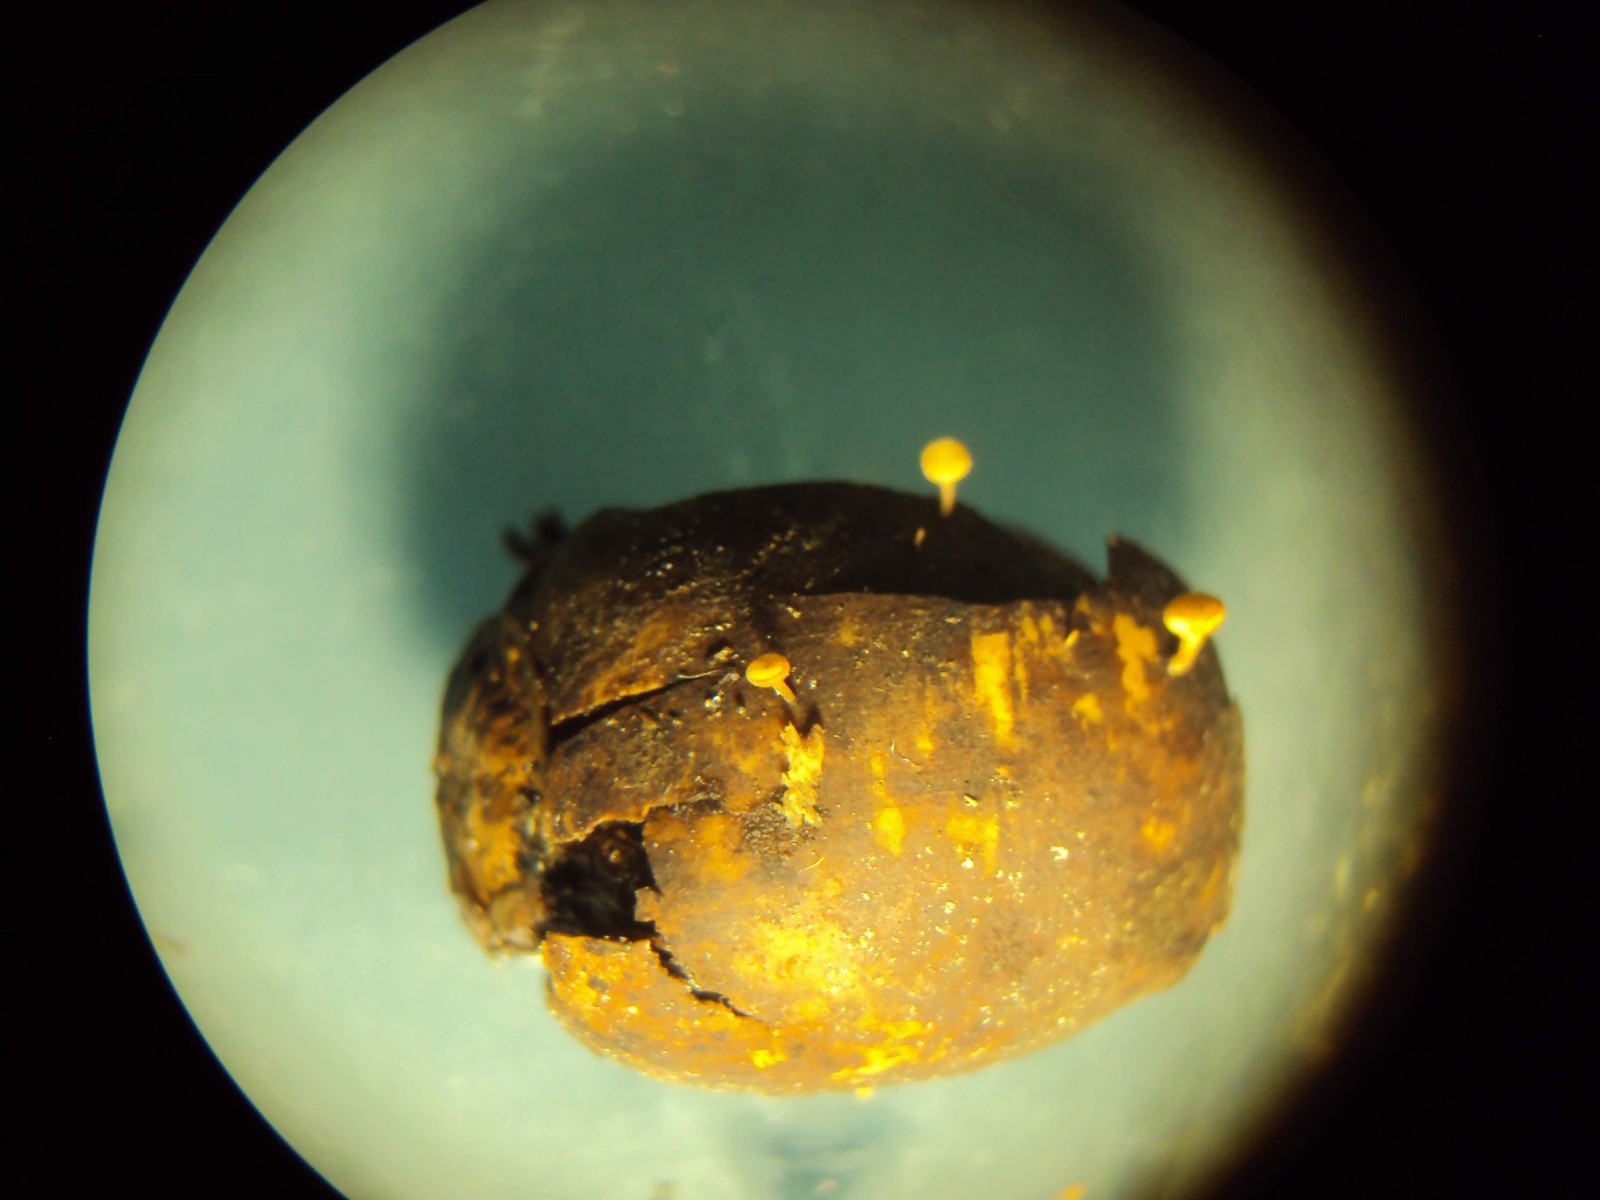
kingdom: Fungi
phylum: Ascomycota
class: Leotiomycetes
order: Helotiales
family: Helotiaceae
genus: Hymenoscyphus
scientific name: Hymenoscyphus fructigenus
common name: frugt-stilkskive
